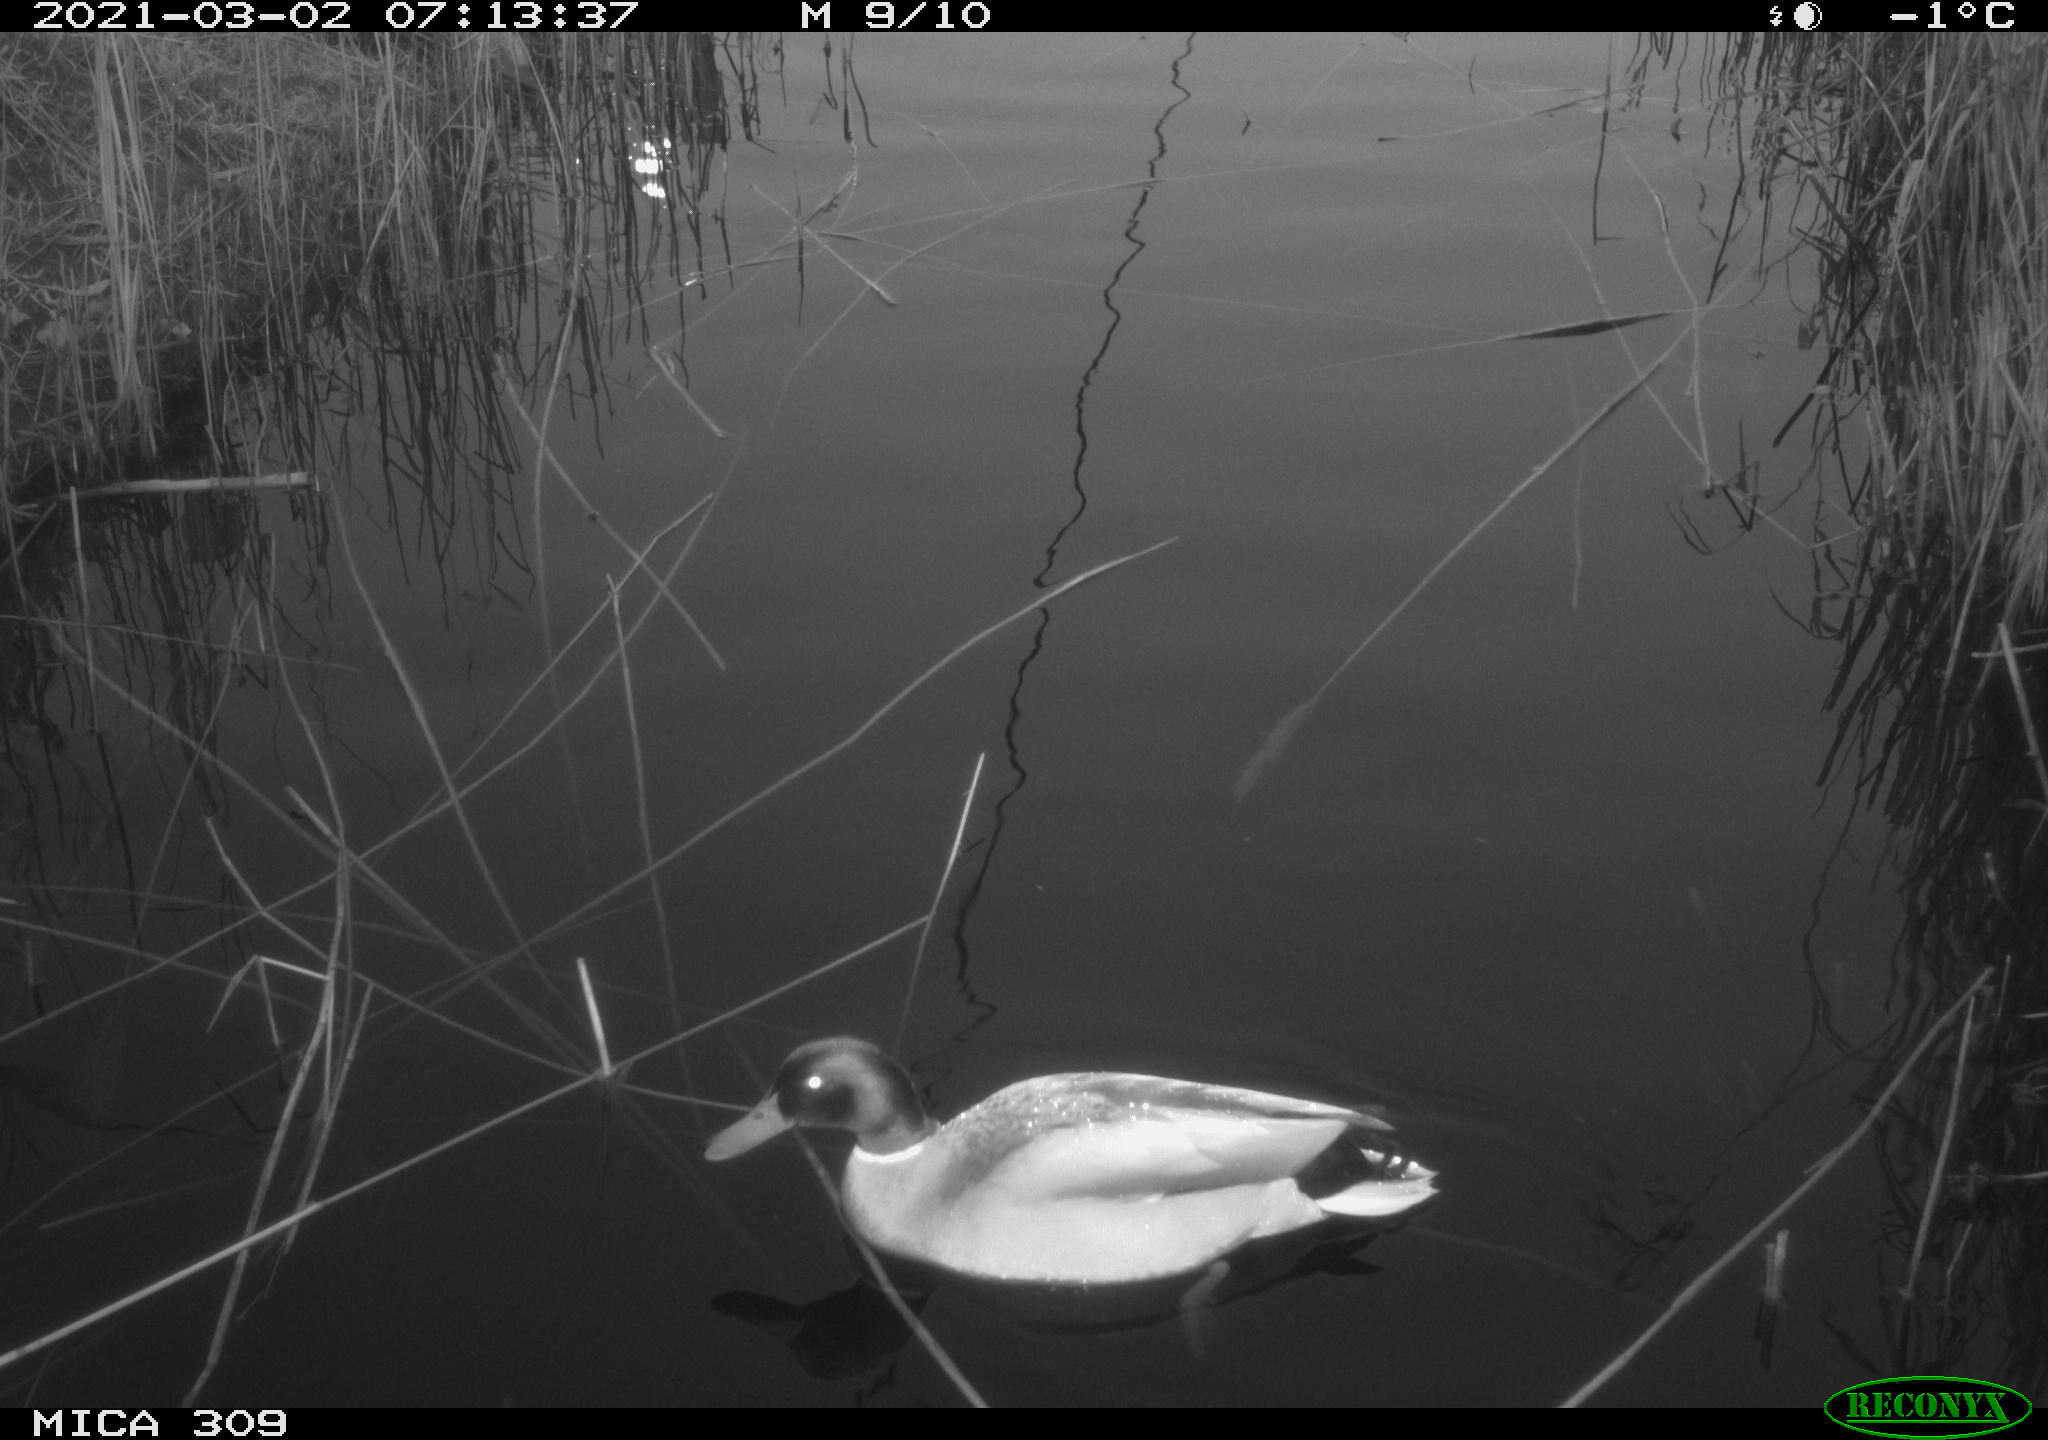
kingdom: Animalia
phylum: Chordata
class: Aves
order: Gruiformes
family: Rallidae
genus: Gallinula
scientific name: Gallinula chloropus
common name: Common moorhen
